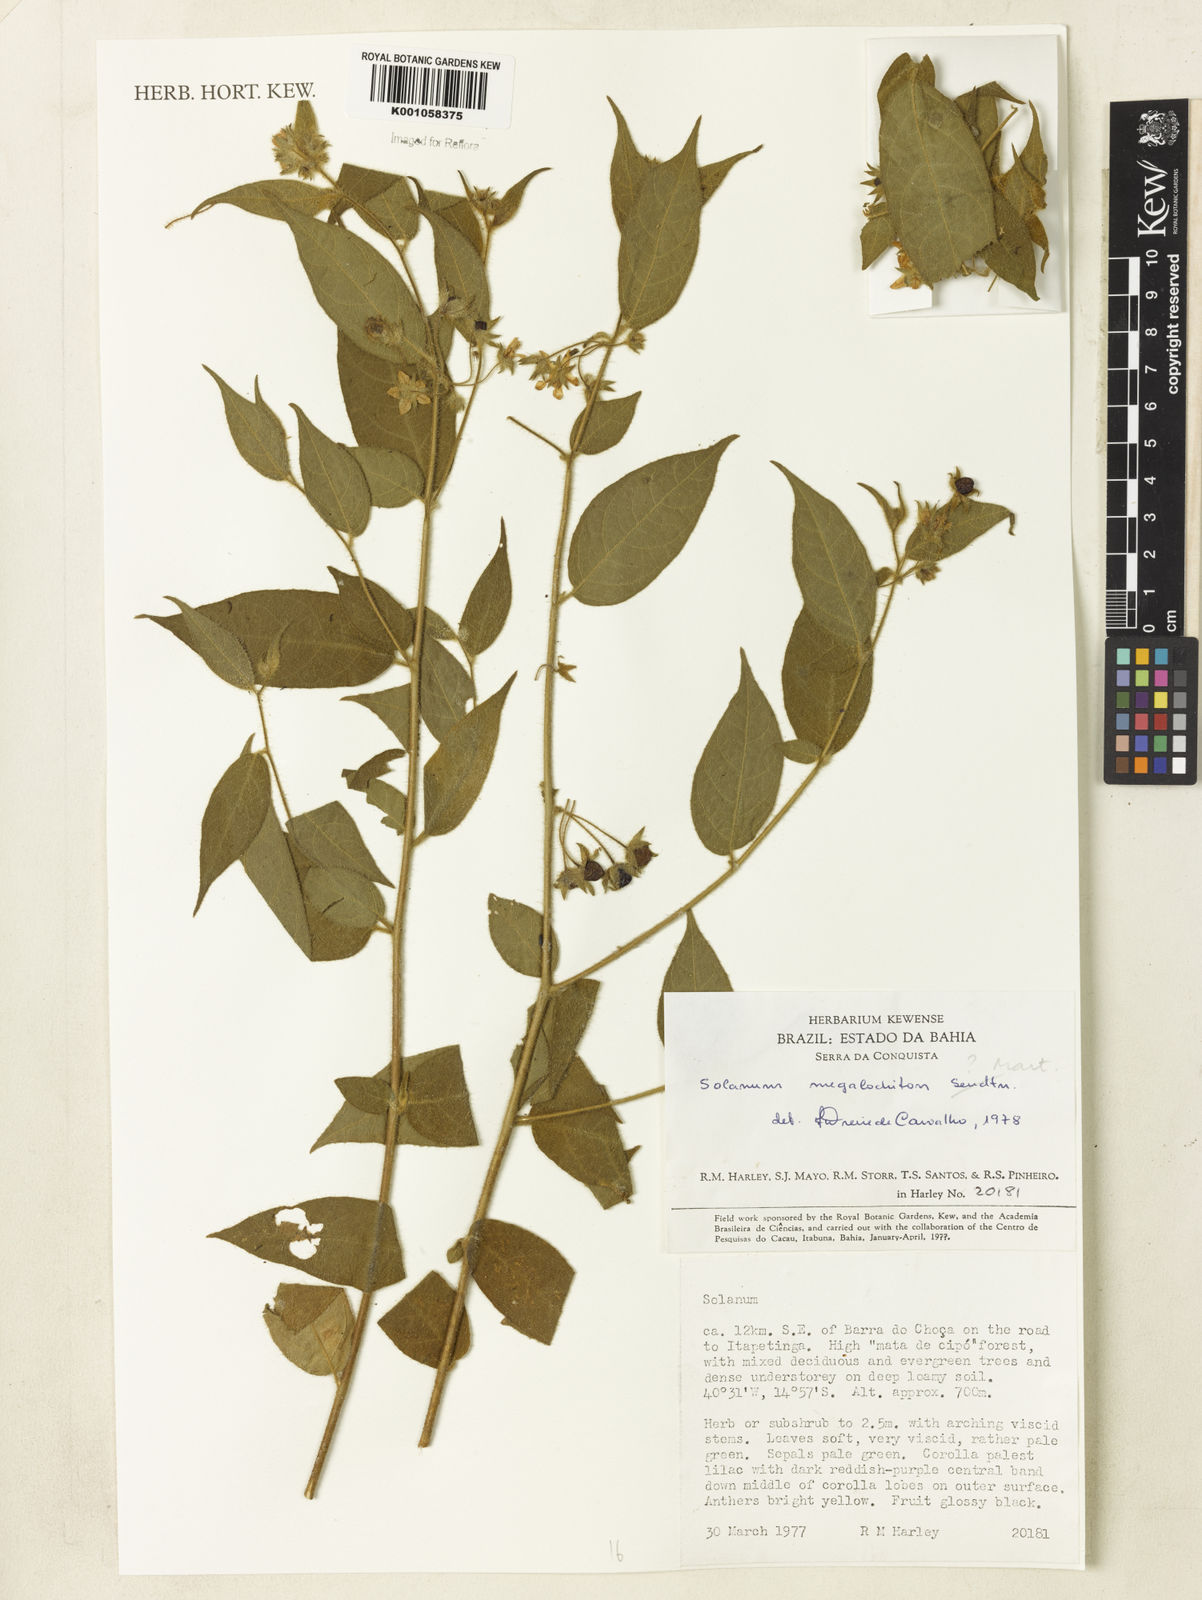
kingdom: Plantae
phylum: Tracheophyta
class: Magnoliopsida
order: Solanales
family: Solanaceae
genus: Solanum
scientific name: Solanum megalochiton
